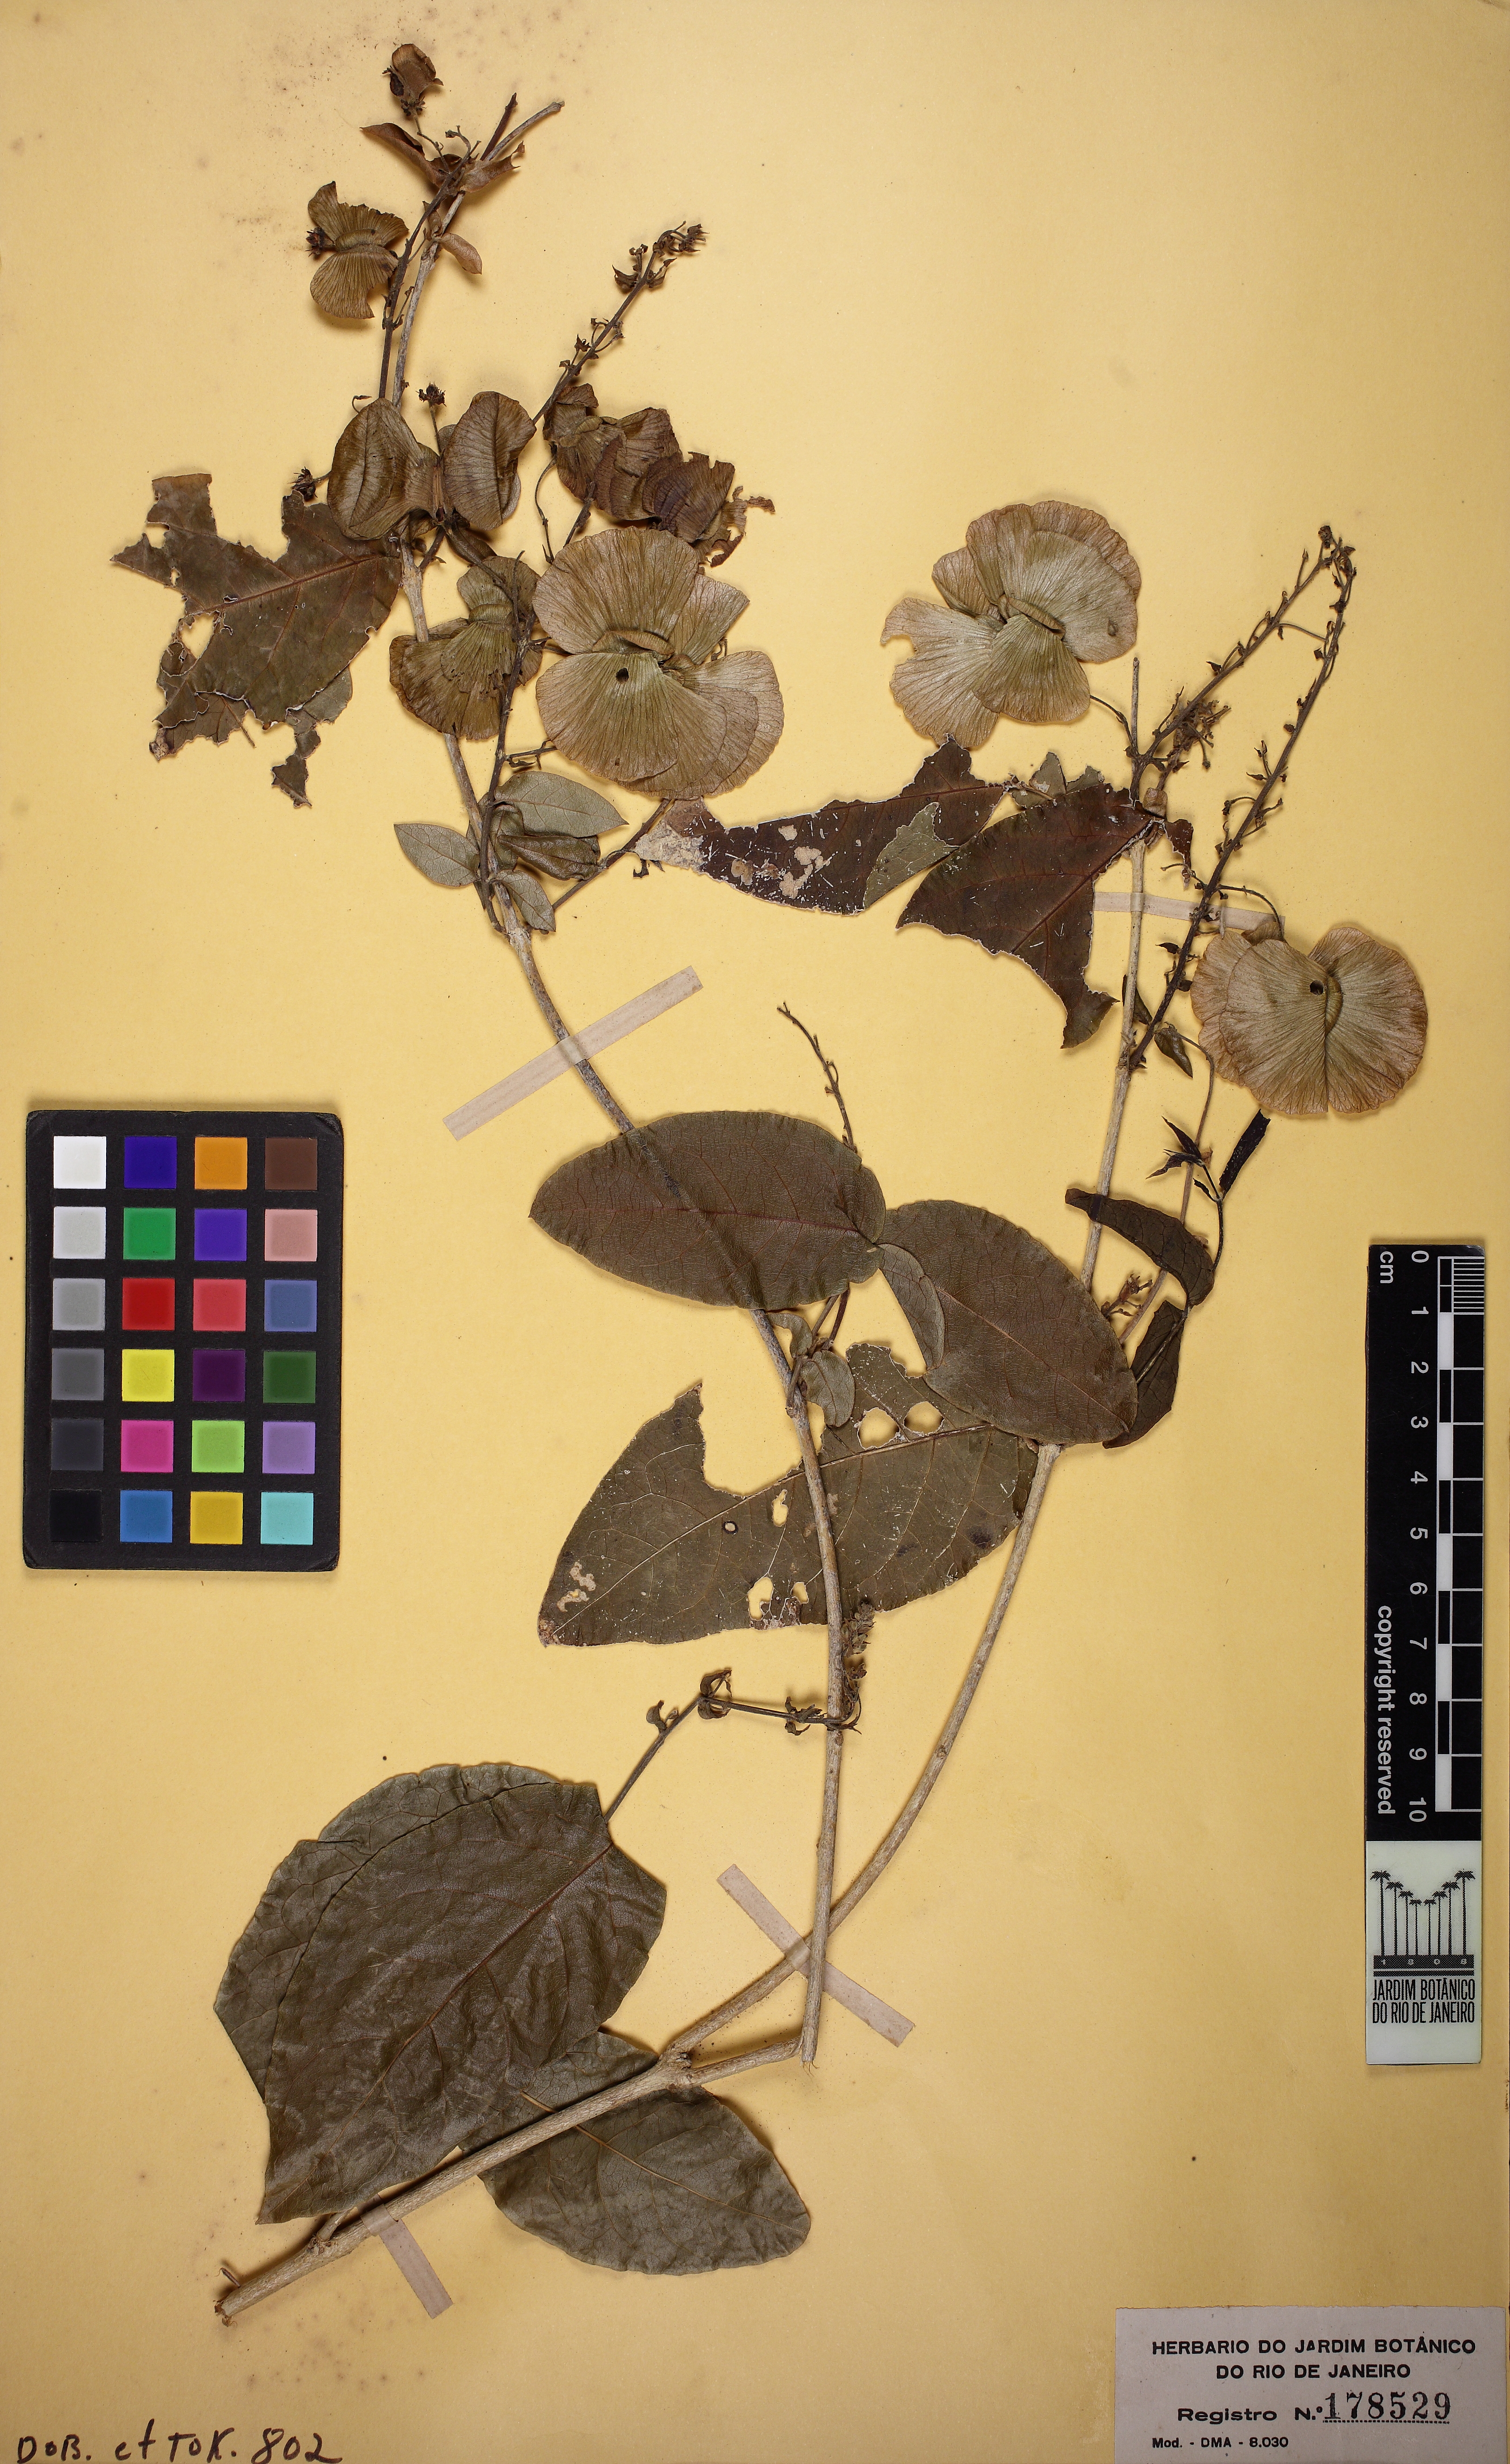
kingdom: Plantae
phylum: Tracheophyta
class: Magnoliopsida
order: Malpighiales
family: Malpighiaceae
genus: Amorimia
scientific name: Amorimia pubiflora
